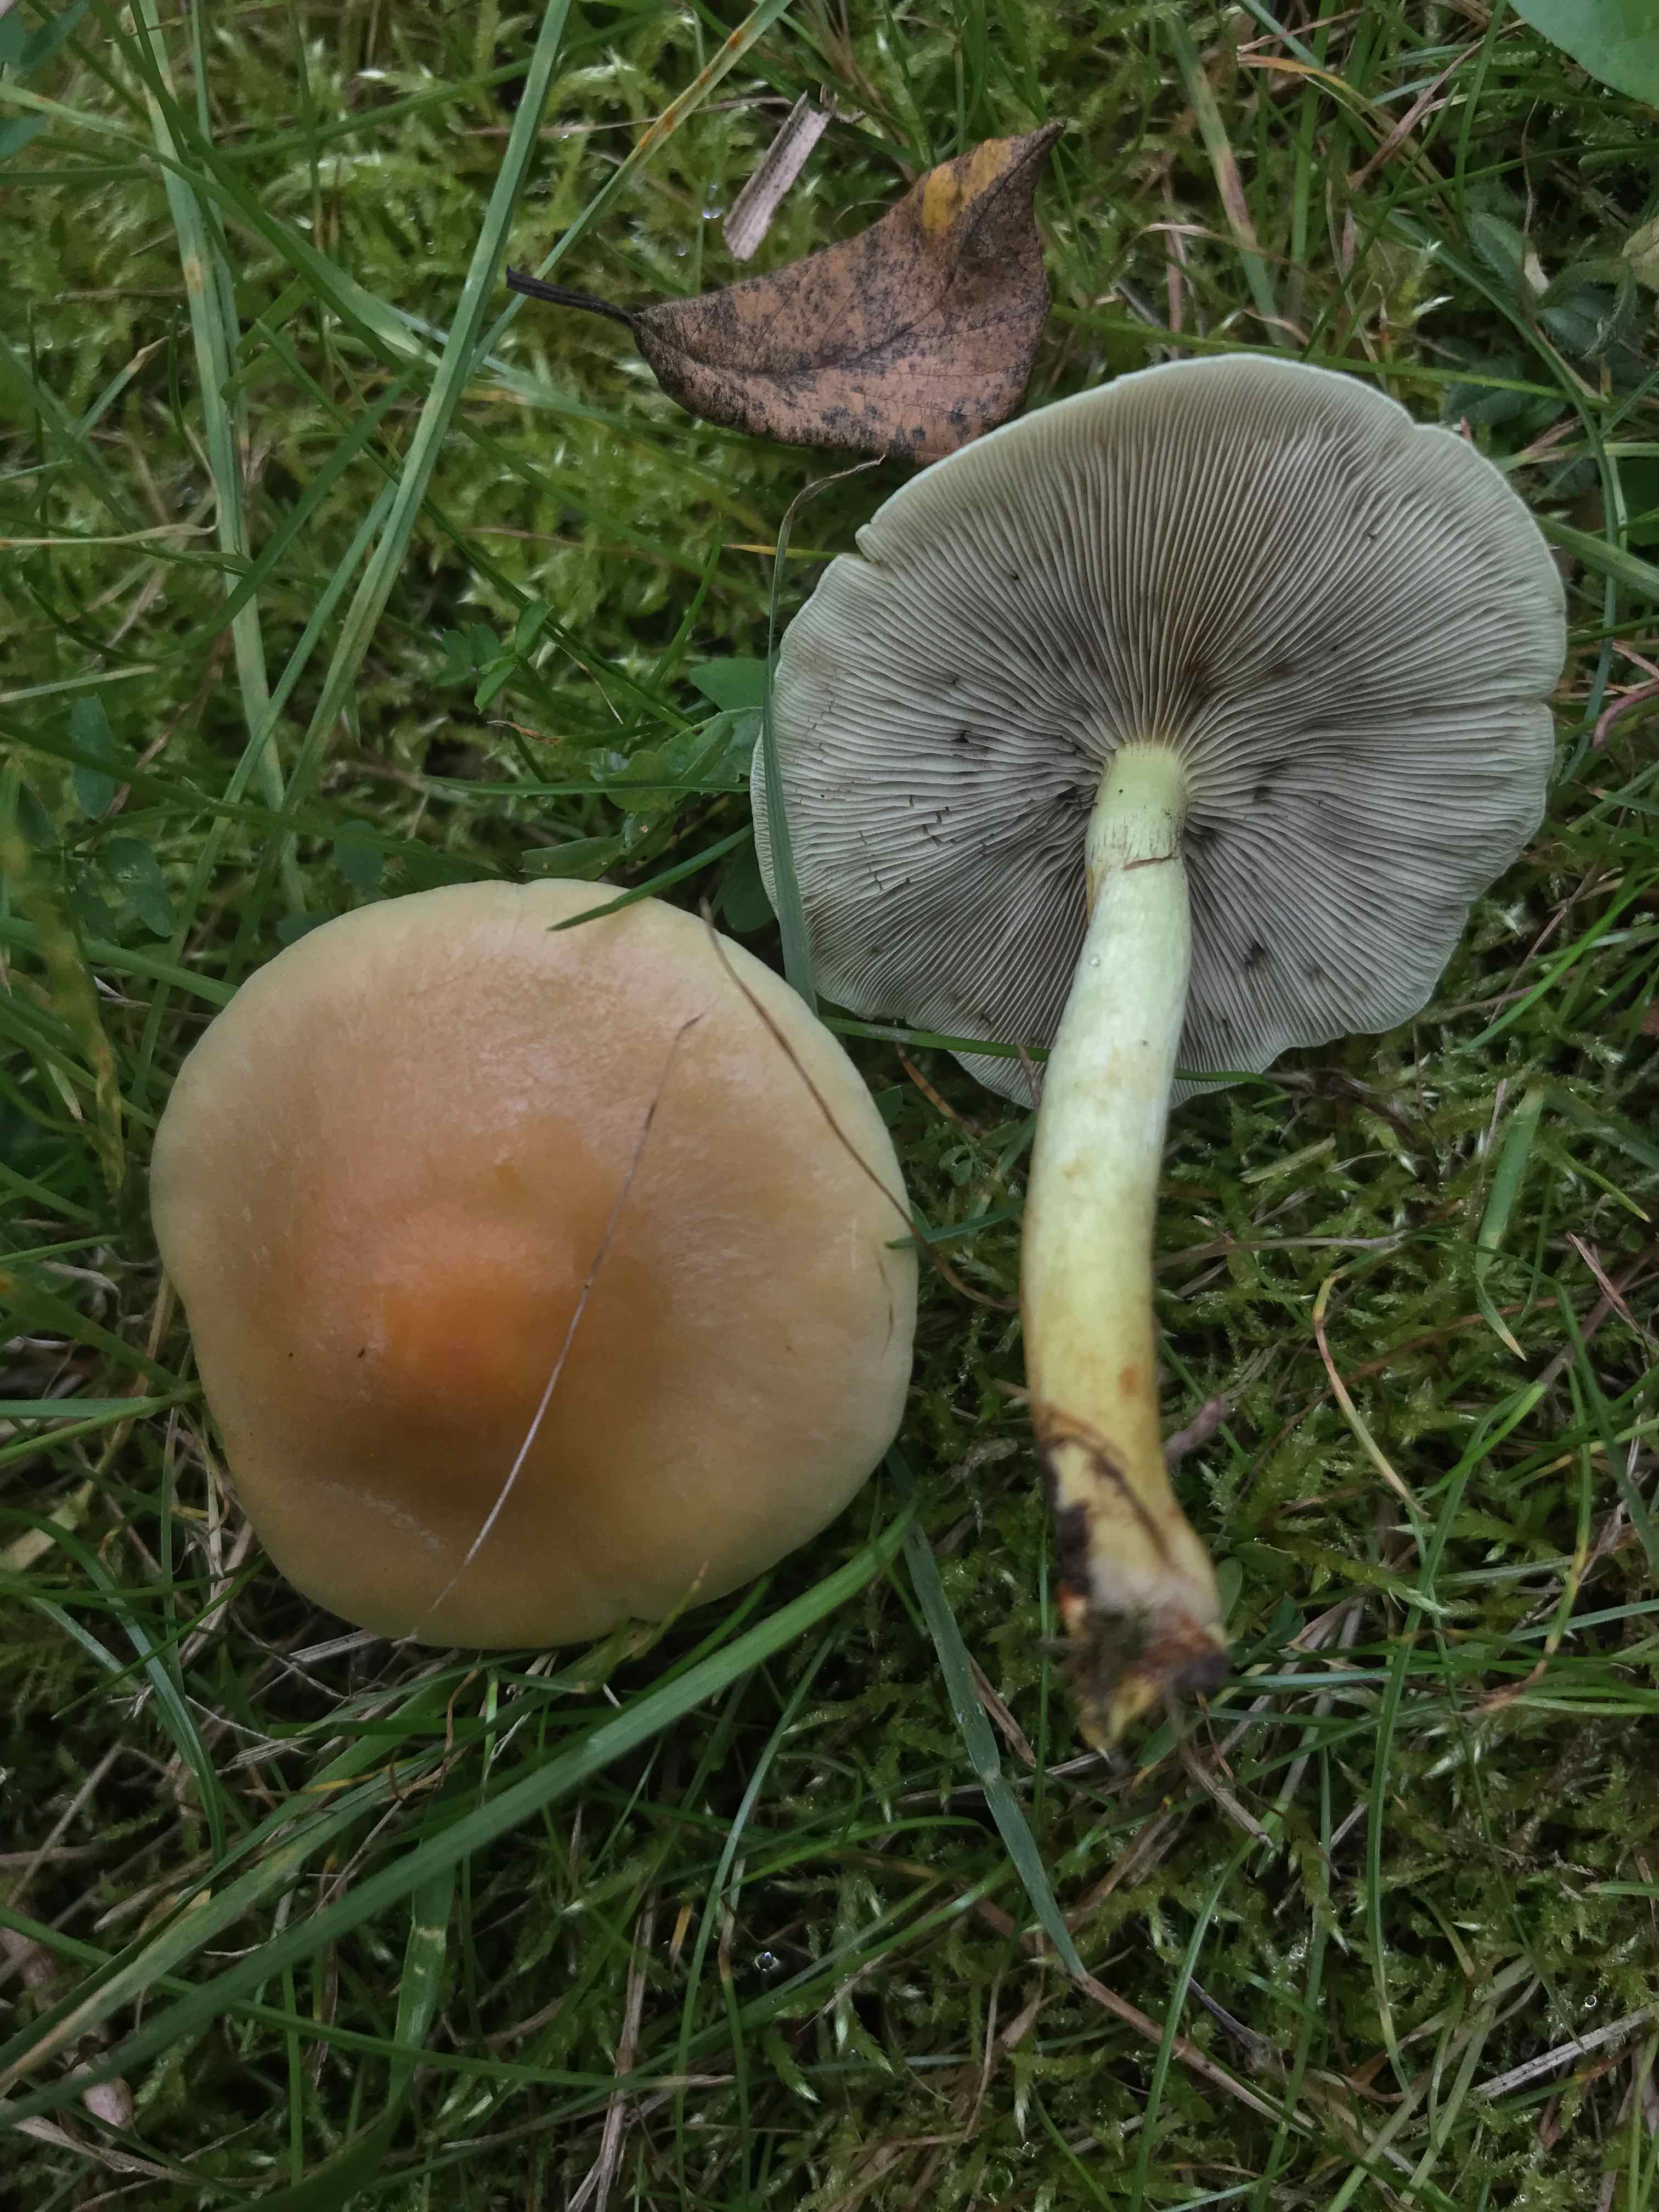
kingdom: Fungi
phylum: Basidiomycota
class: Agaricomycetes
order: Agaricales
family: Strophariaceae
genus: Hypholoma
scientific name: Hypholoma fasciculare
